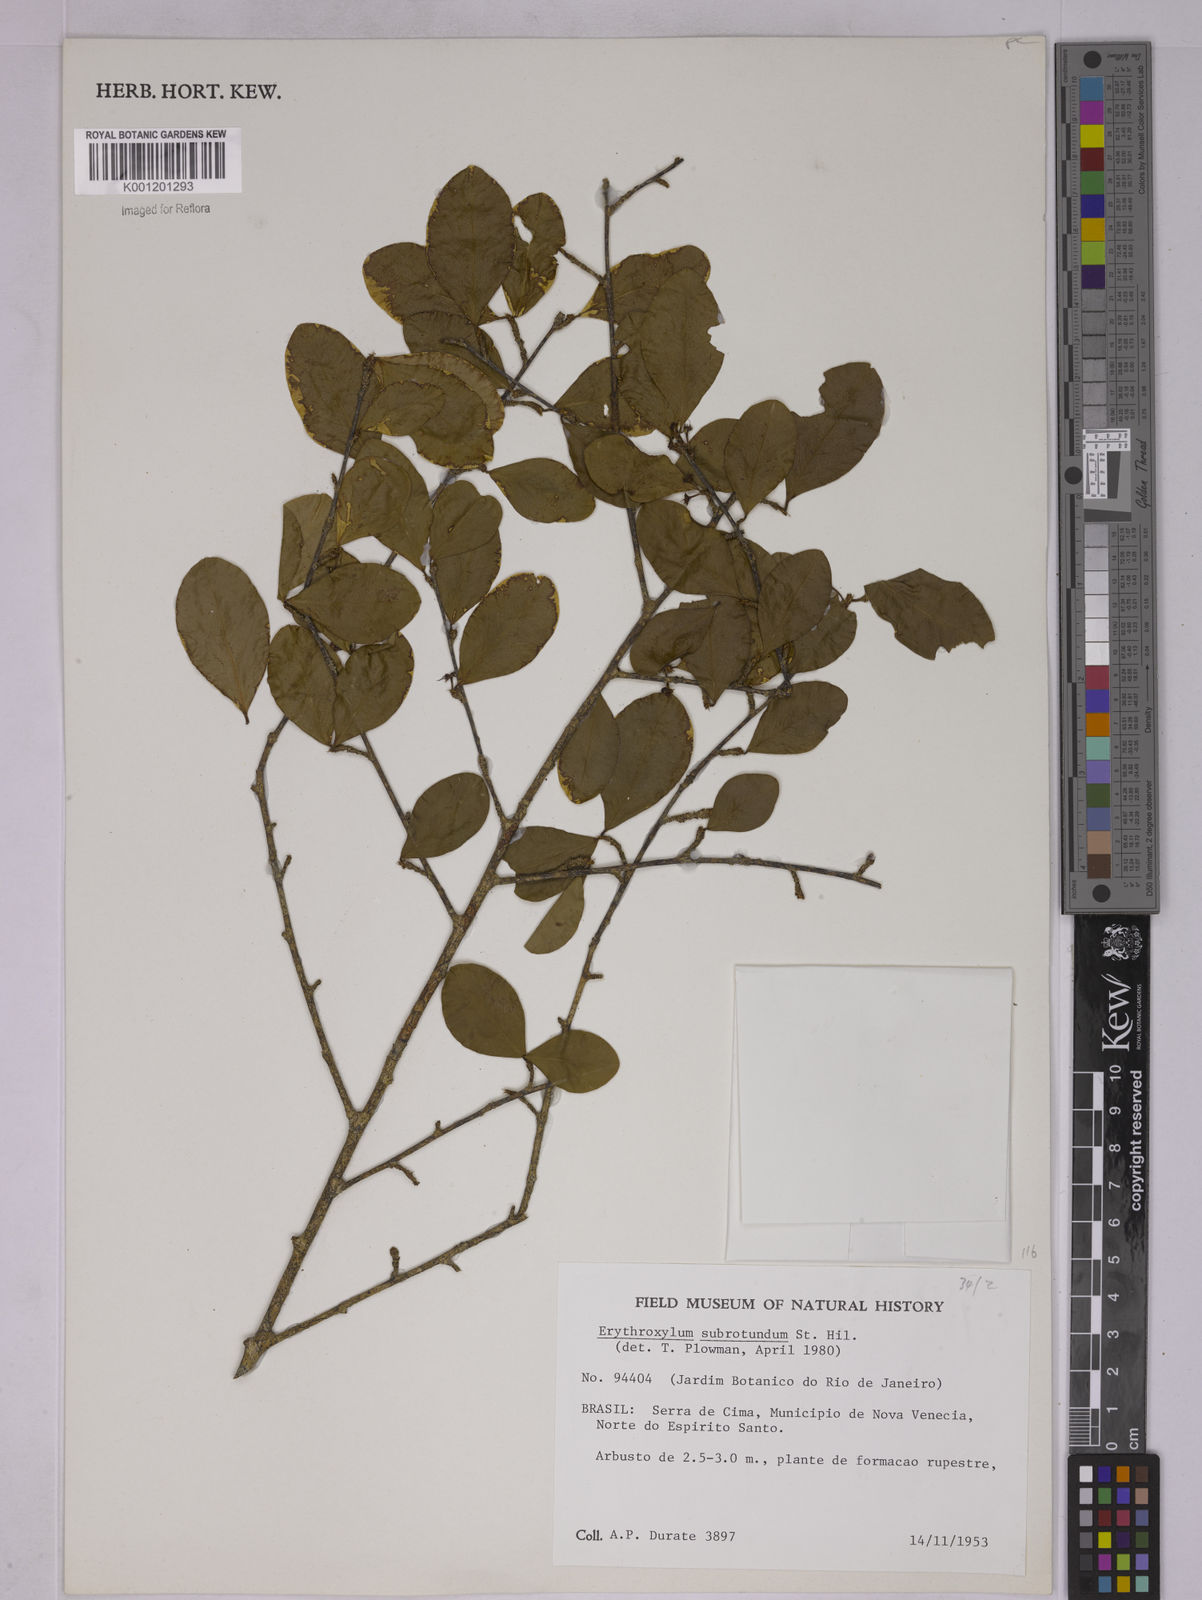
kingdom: Plantae
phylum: Tracheophyta
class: Magnoliopsida
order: Malpighiales
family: Erythroxylaceae
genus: Erythroxylum
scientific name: Erythroxylum subrotundum
